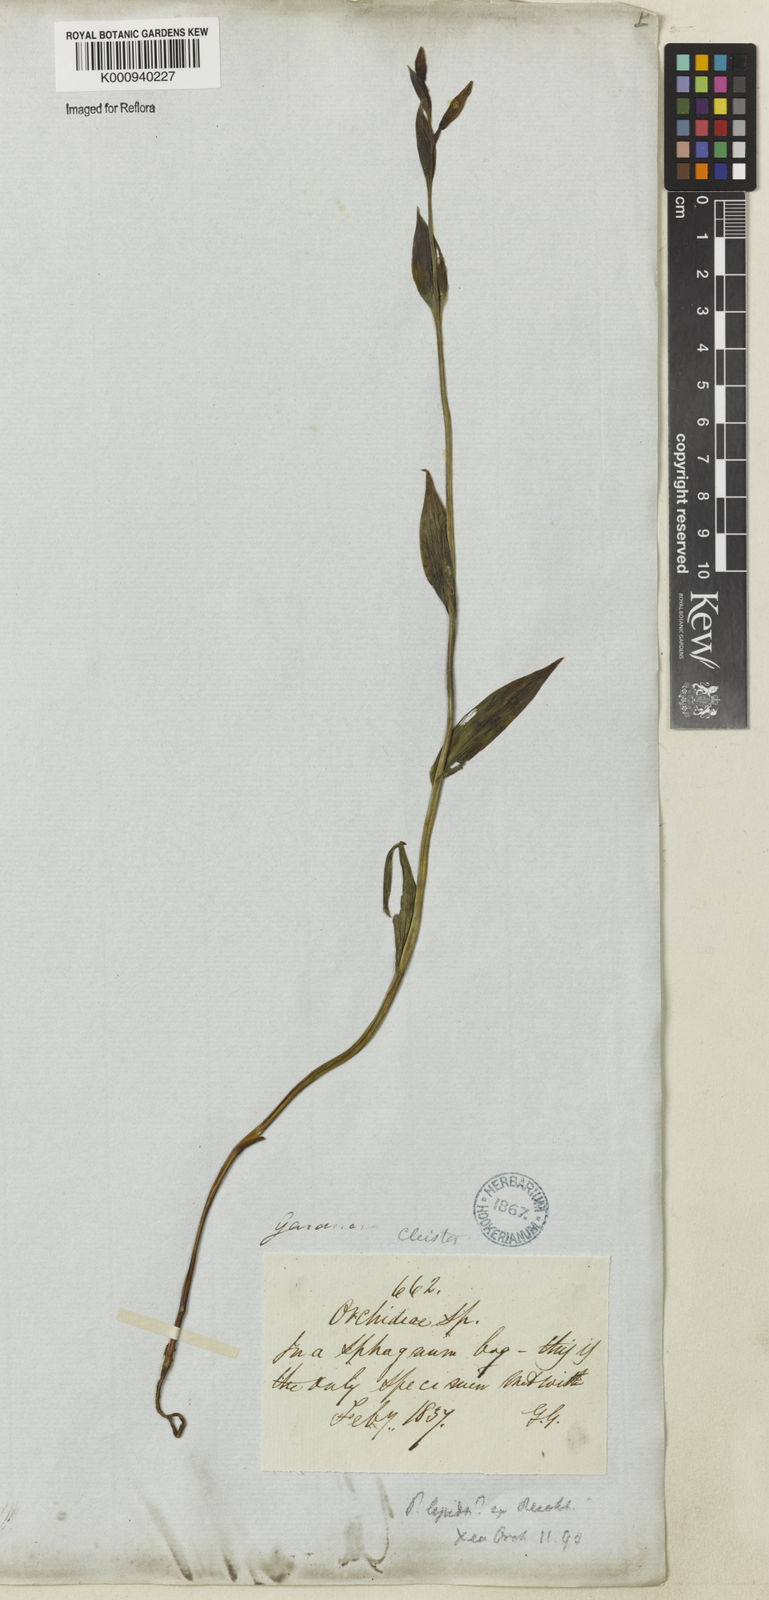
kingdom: Plantae
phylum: Tracheophyta
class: Liliopsida
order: Asparagales
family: Orchidaceae
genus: Cleistes
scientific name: Cleistes montana
